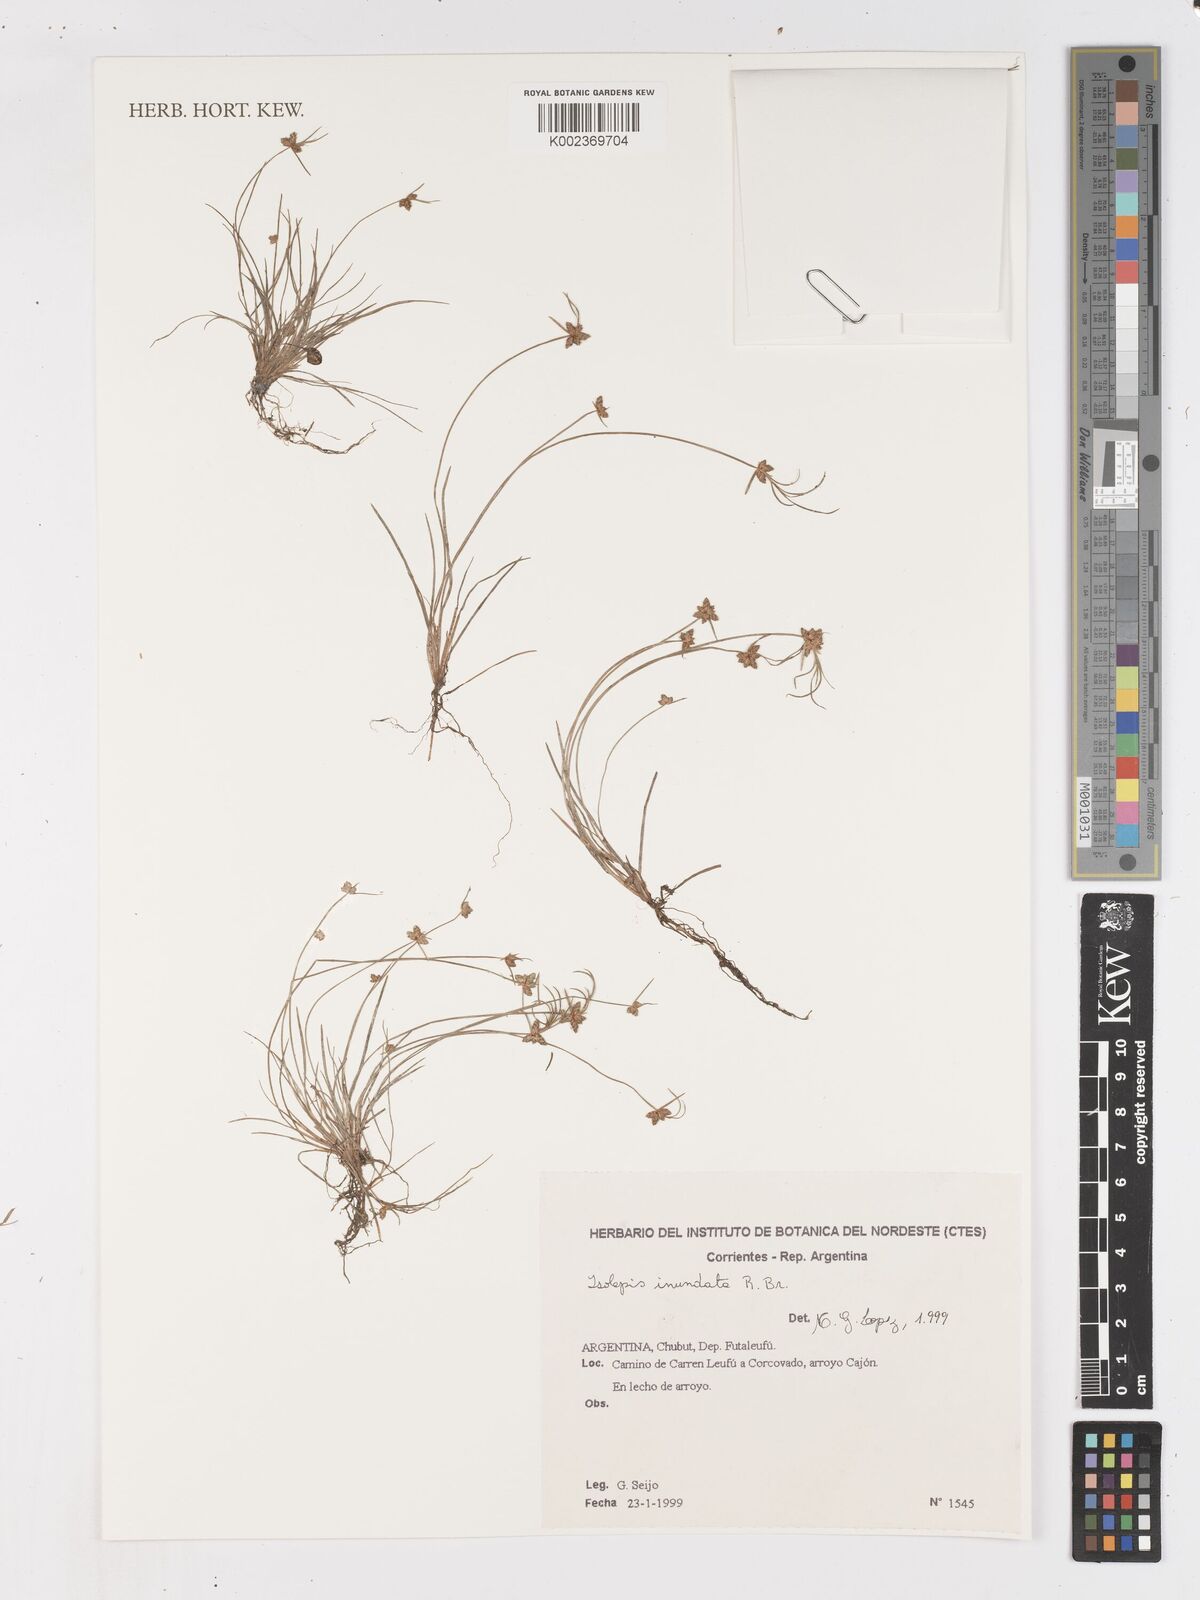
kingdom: Plantae
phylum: Tracheophyta
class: Liliopsida
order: Poales
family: Cyperaceae
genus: Isolepis
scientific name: Isolepis inundata
